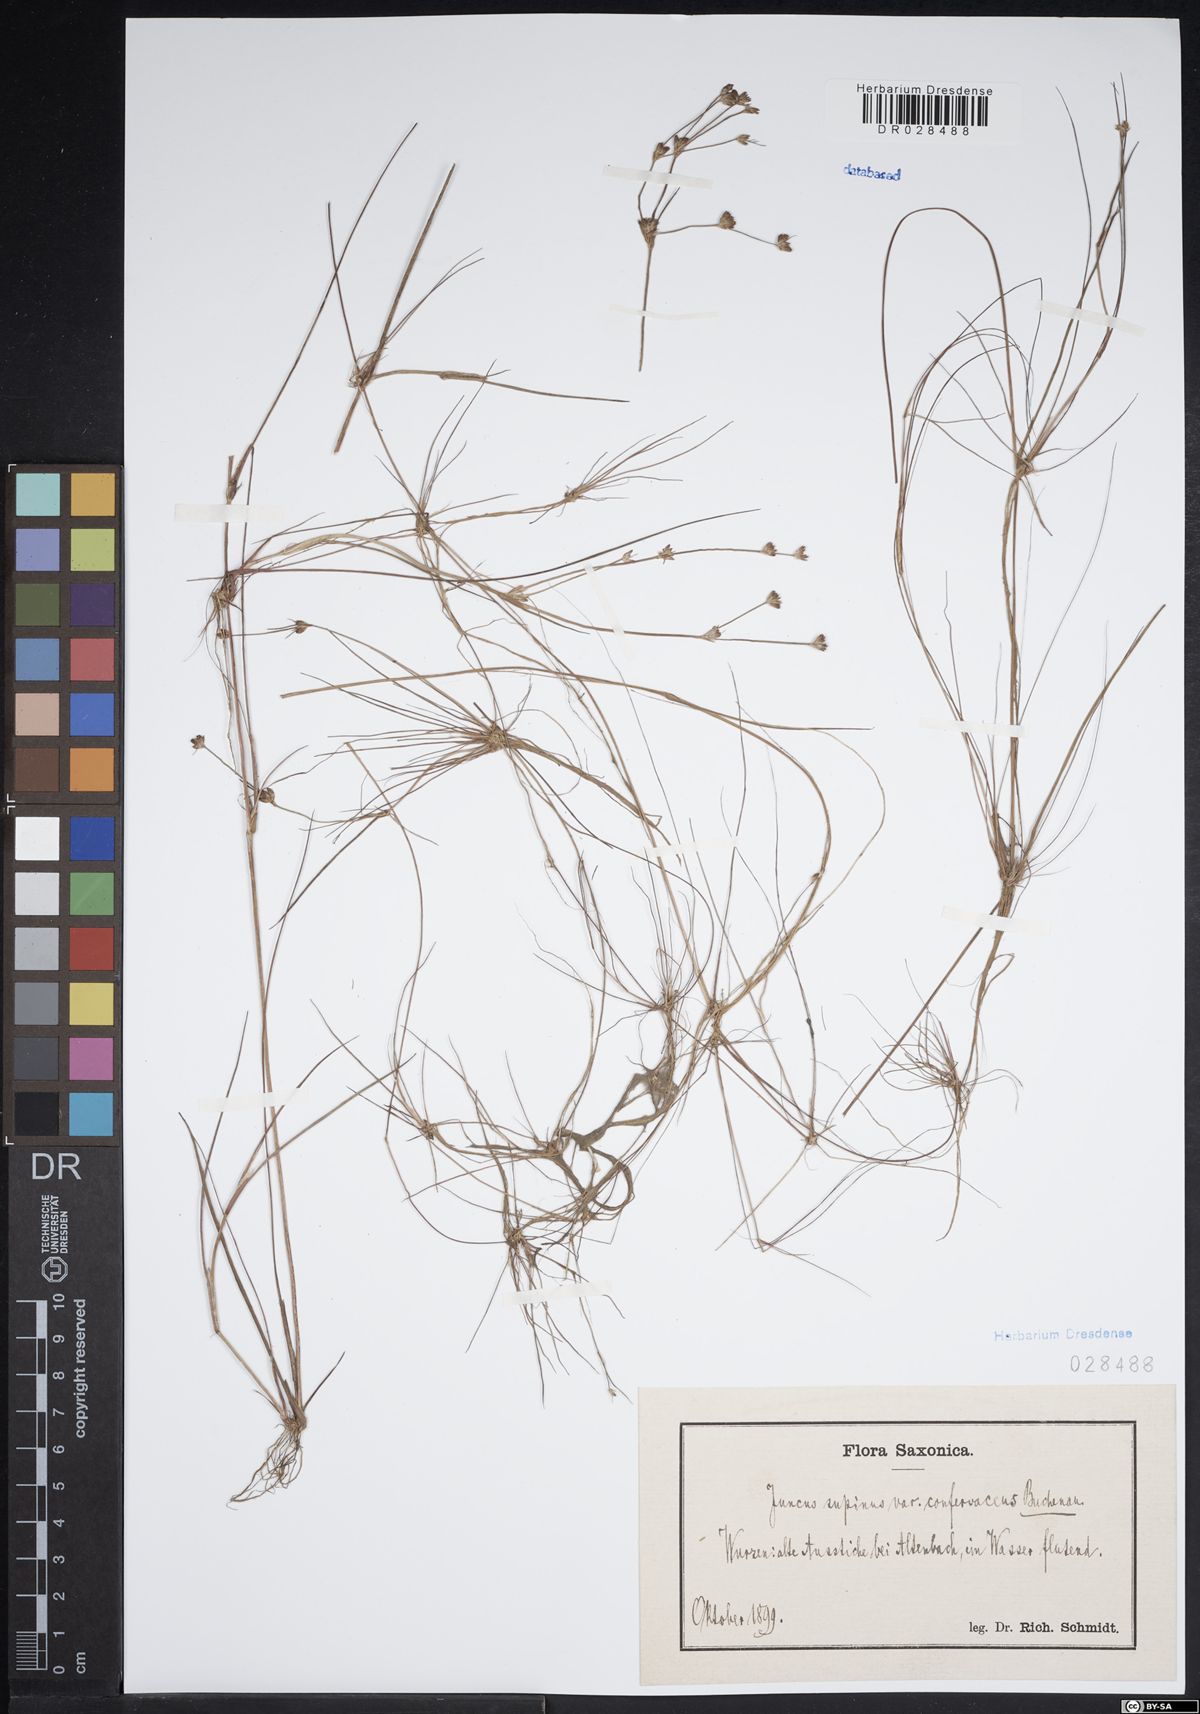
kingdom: Plantae
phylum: Tracheophyta
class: Liliopsida
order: Poales
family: Juncaceae
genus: Juncus
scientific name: Juncus bulbosus
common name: Bulbous rush
